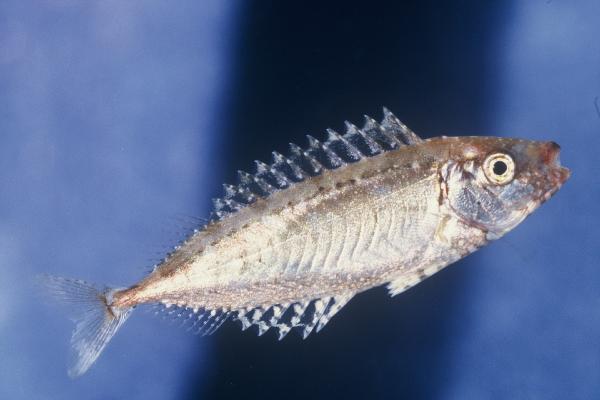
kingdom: Animalia
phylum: Chordata
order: Perciformes
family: Siganidae
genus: Siganus
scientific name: Siganus argenteus
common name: Forktail rabbitfish
